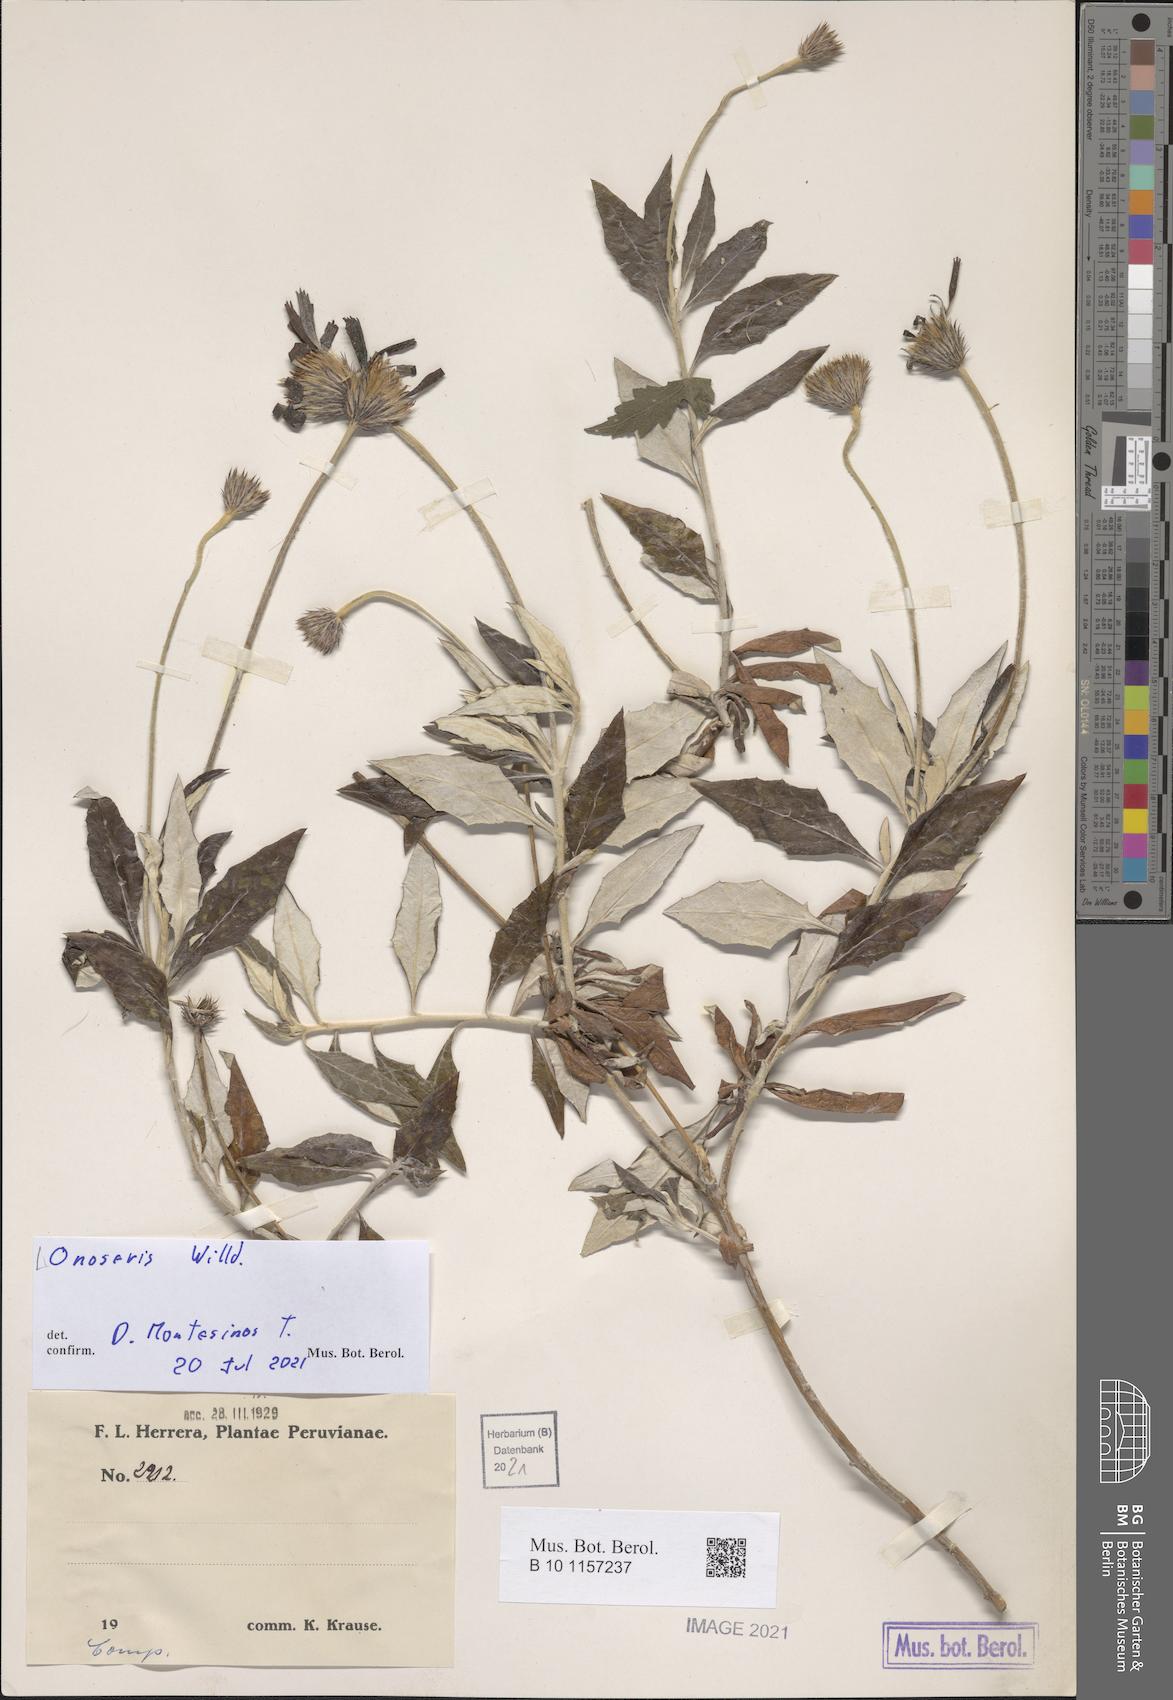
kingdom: Plantae
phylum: Tracheophyta
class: Magnoliopsida
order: Asterales
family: Asteraceae
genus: Onoseris
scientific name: Onoseris
